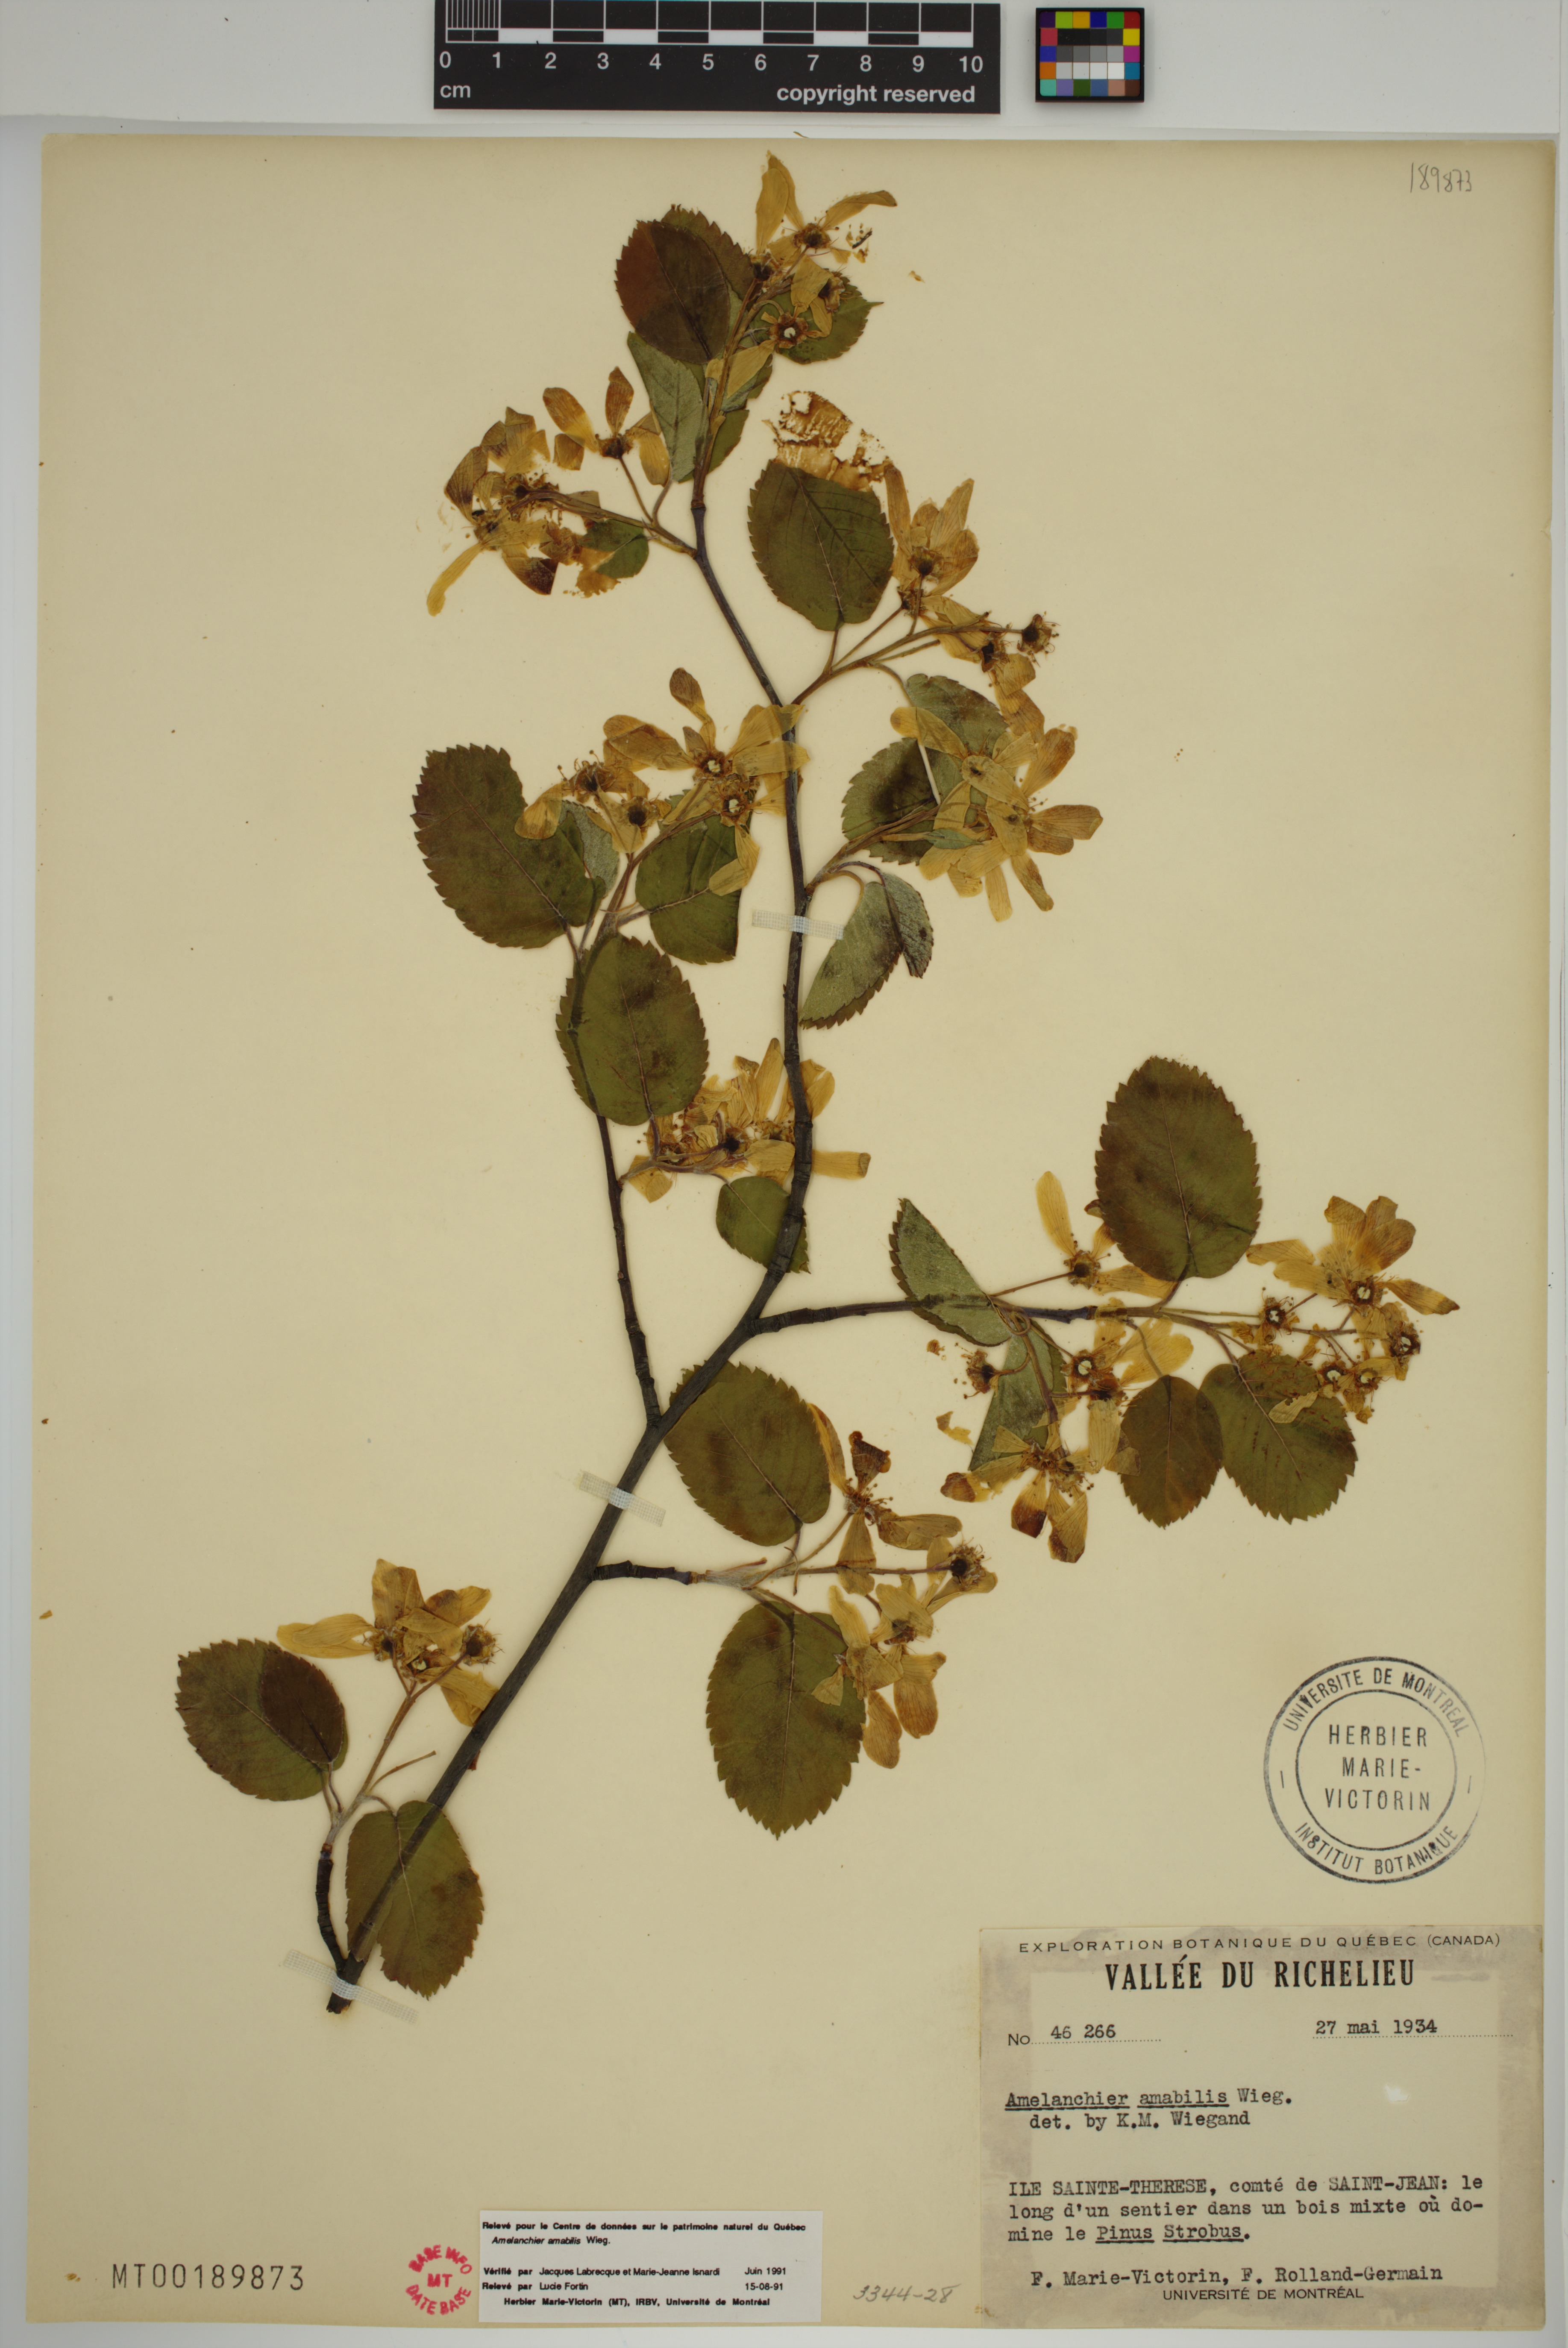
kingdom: Plantae
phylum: Tracheophyta
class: Magnoliopsida
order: Rosales
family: Rosaceae
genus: Amelanchier
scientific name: Amelanchier sanguinea
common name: Huron serviceberry
